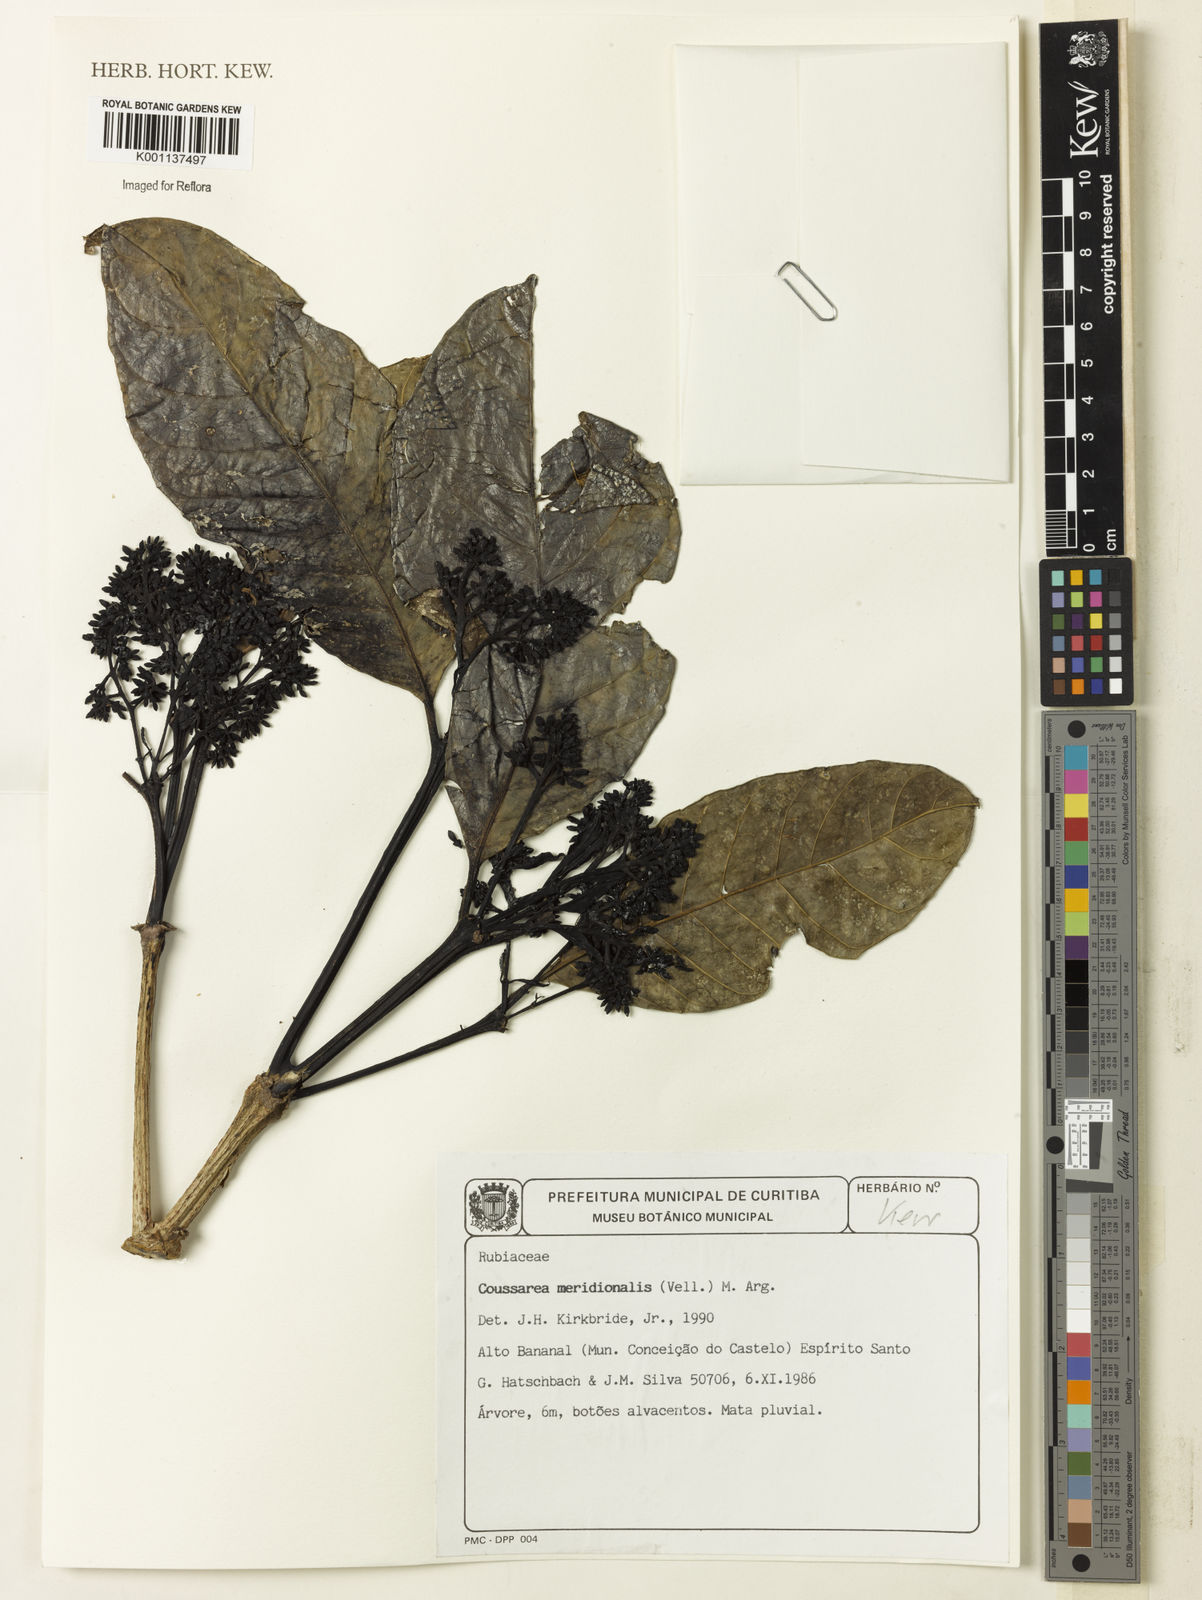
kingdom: Plantae
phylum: Tracheophyta
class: Magnoliopsida
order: Gentianales
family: Rubiaceae
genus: Coussarea
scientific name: Coussarea
